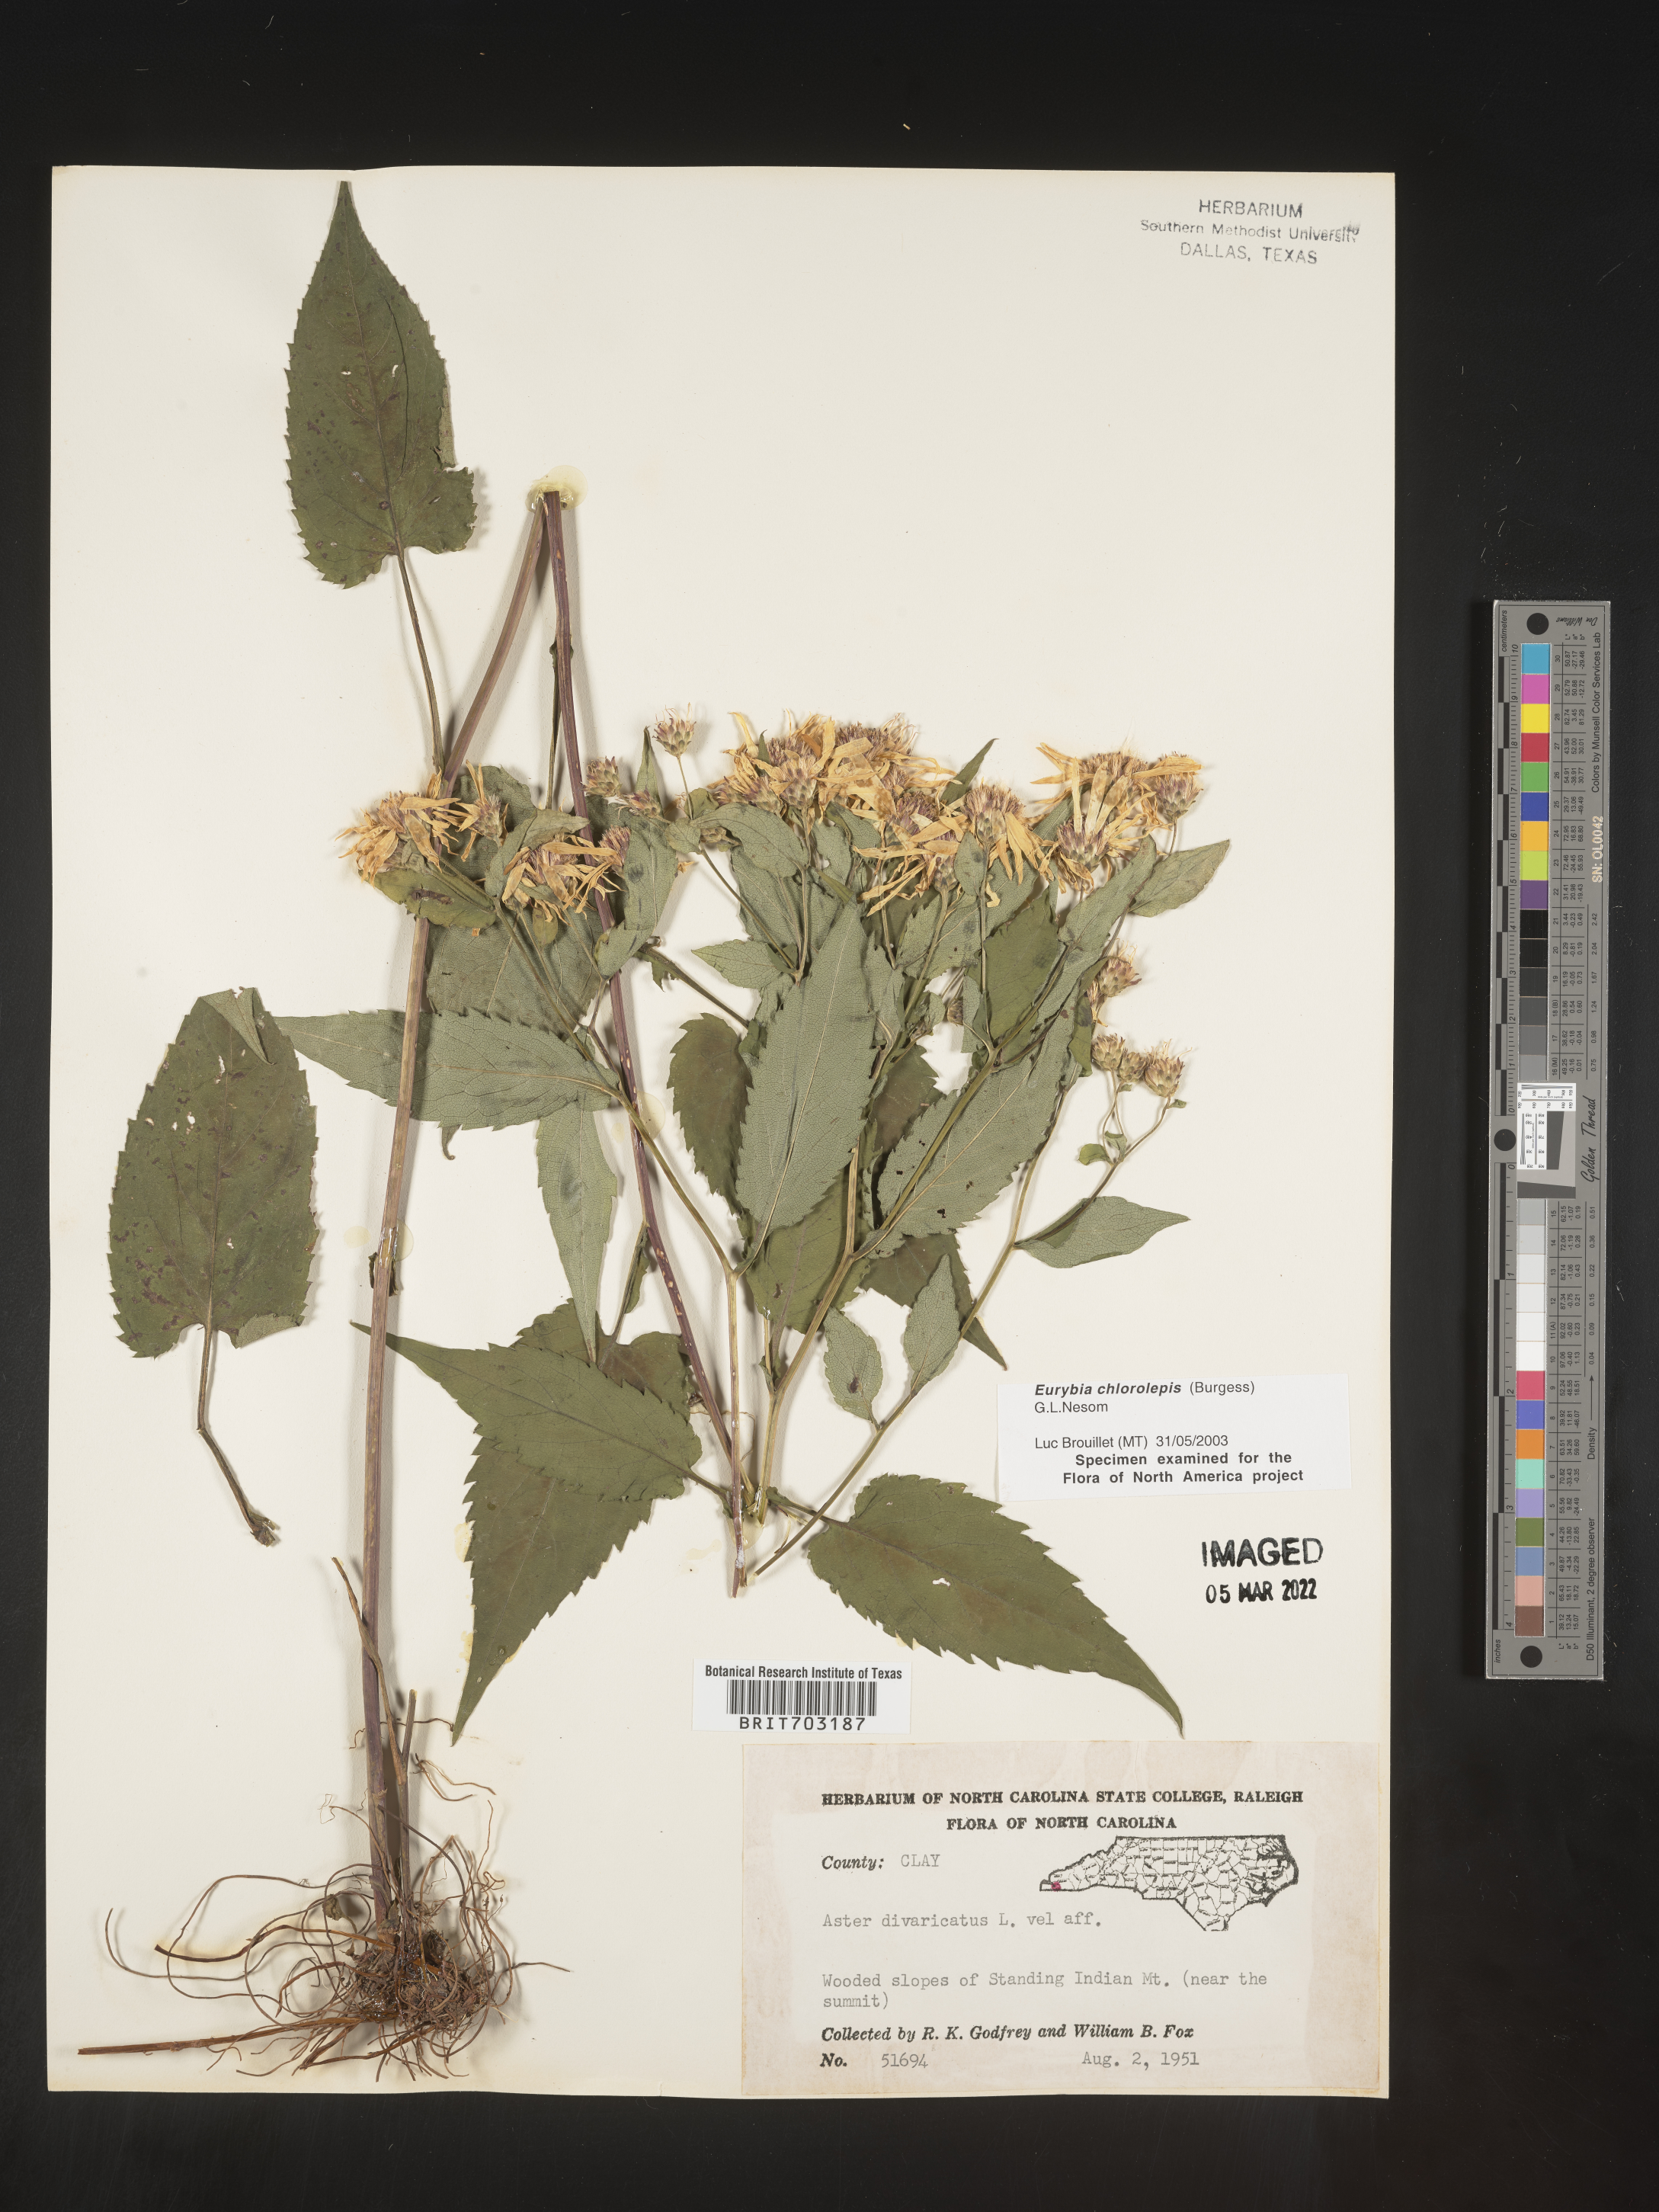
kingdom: Plantae
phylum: Tracheophyta
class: Magnoliopsida
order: Asterales
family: Asteraceae
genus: Eurybia
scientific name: Eurybia chlorolepis
